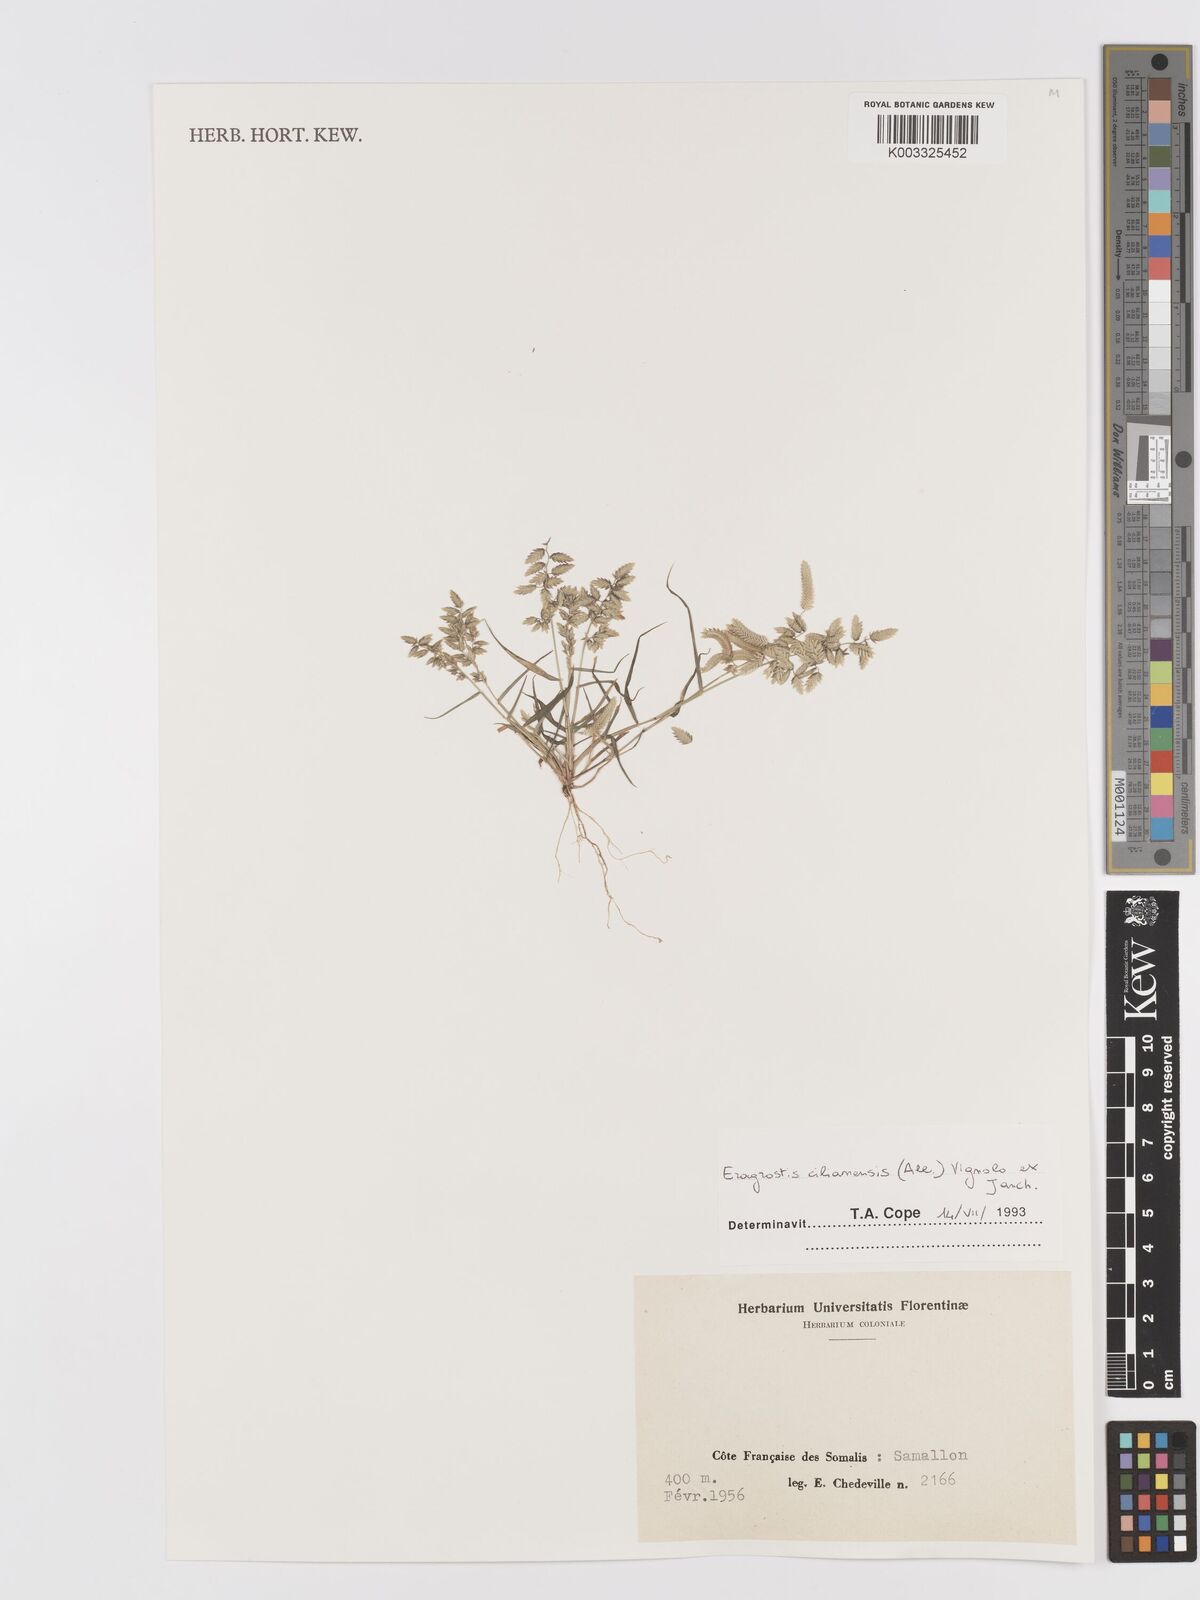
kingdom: Plantae
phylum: Tracheophyta
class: Liliopsida
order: Poales
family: Poaceae
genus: Eragrostis
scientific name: Eragrostis cilianensis
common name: Stinkgrass
